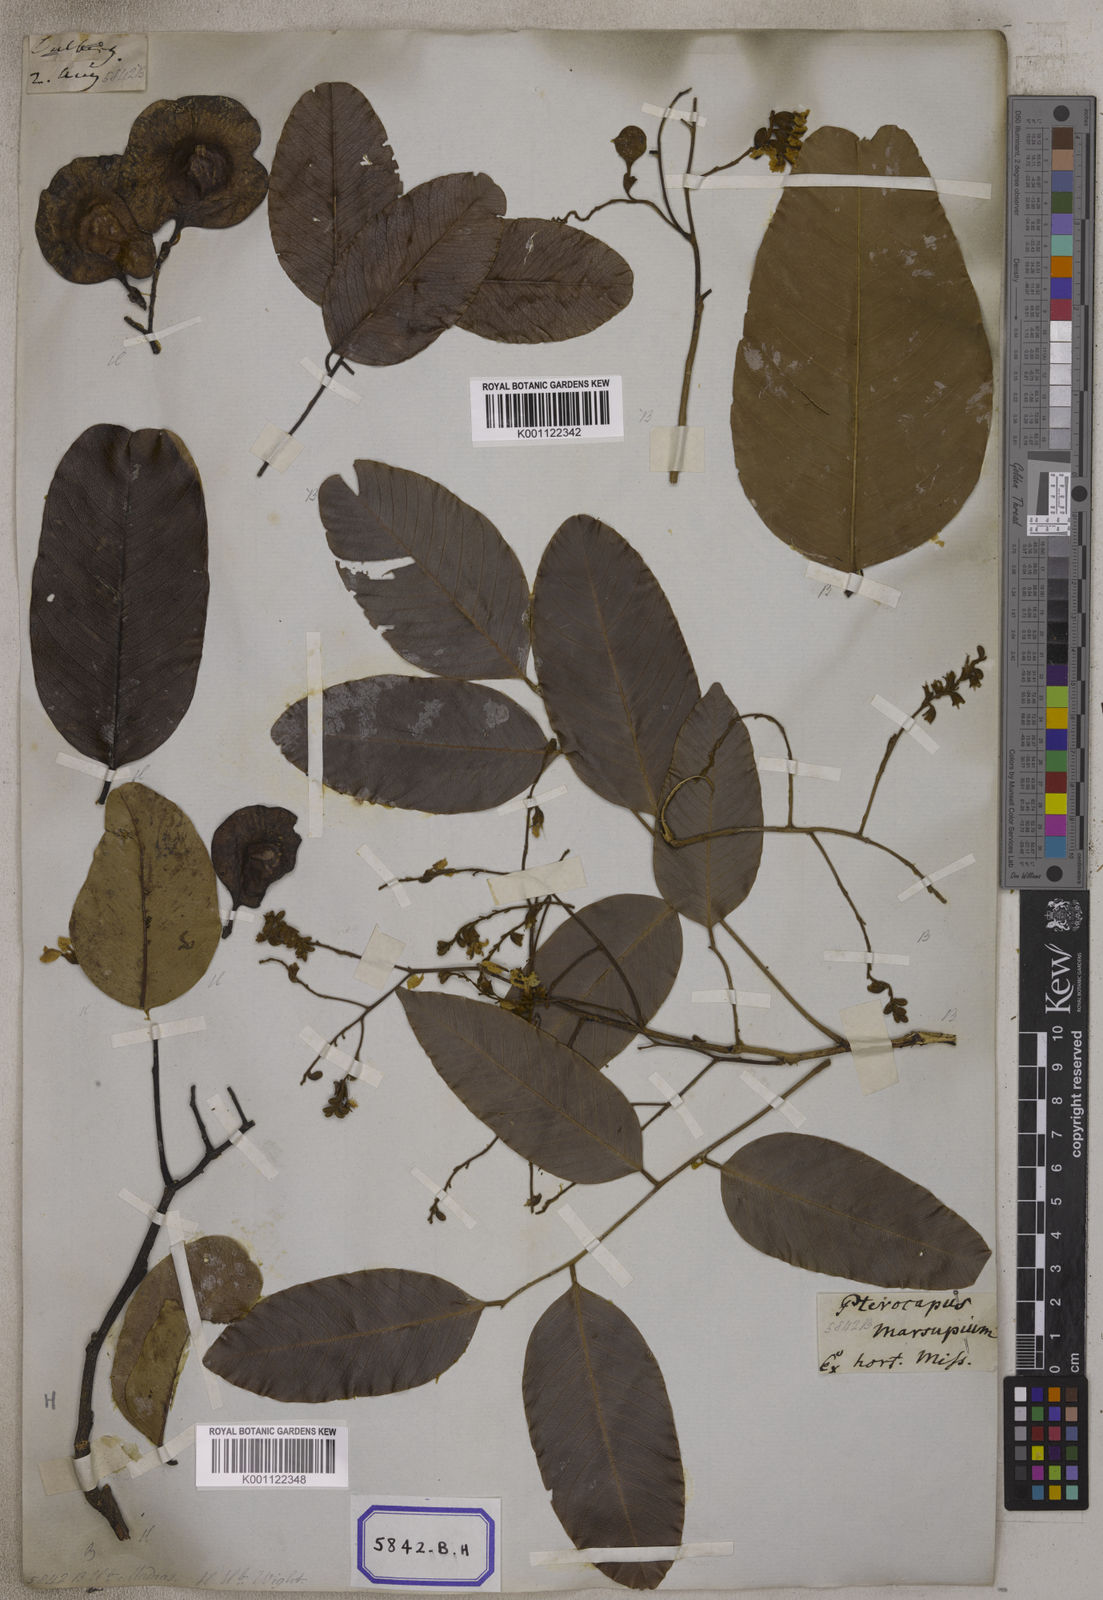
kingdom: Plantae
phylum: Tracheophyta
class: Magnoliopsida
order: Fabales
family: Fabaceae
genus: Pterocarpus
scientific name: Pterocarpus marsupium
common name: East indian/malabar kino
